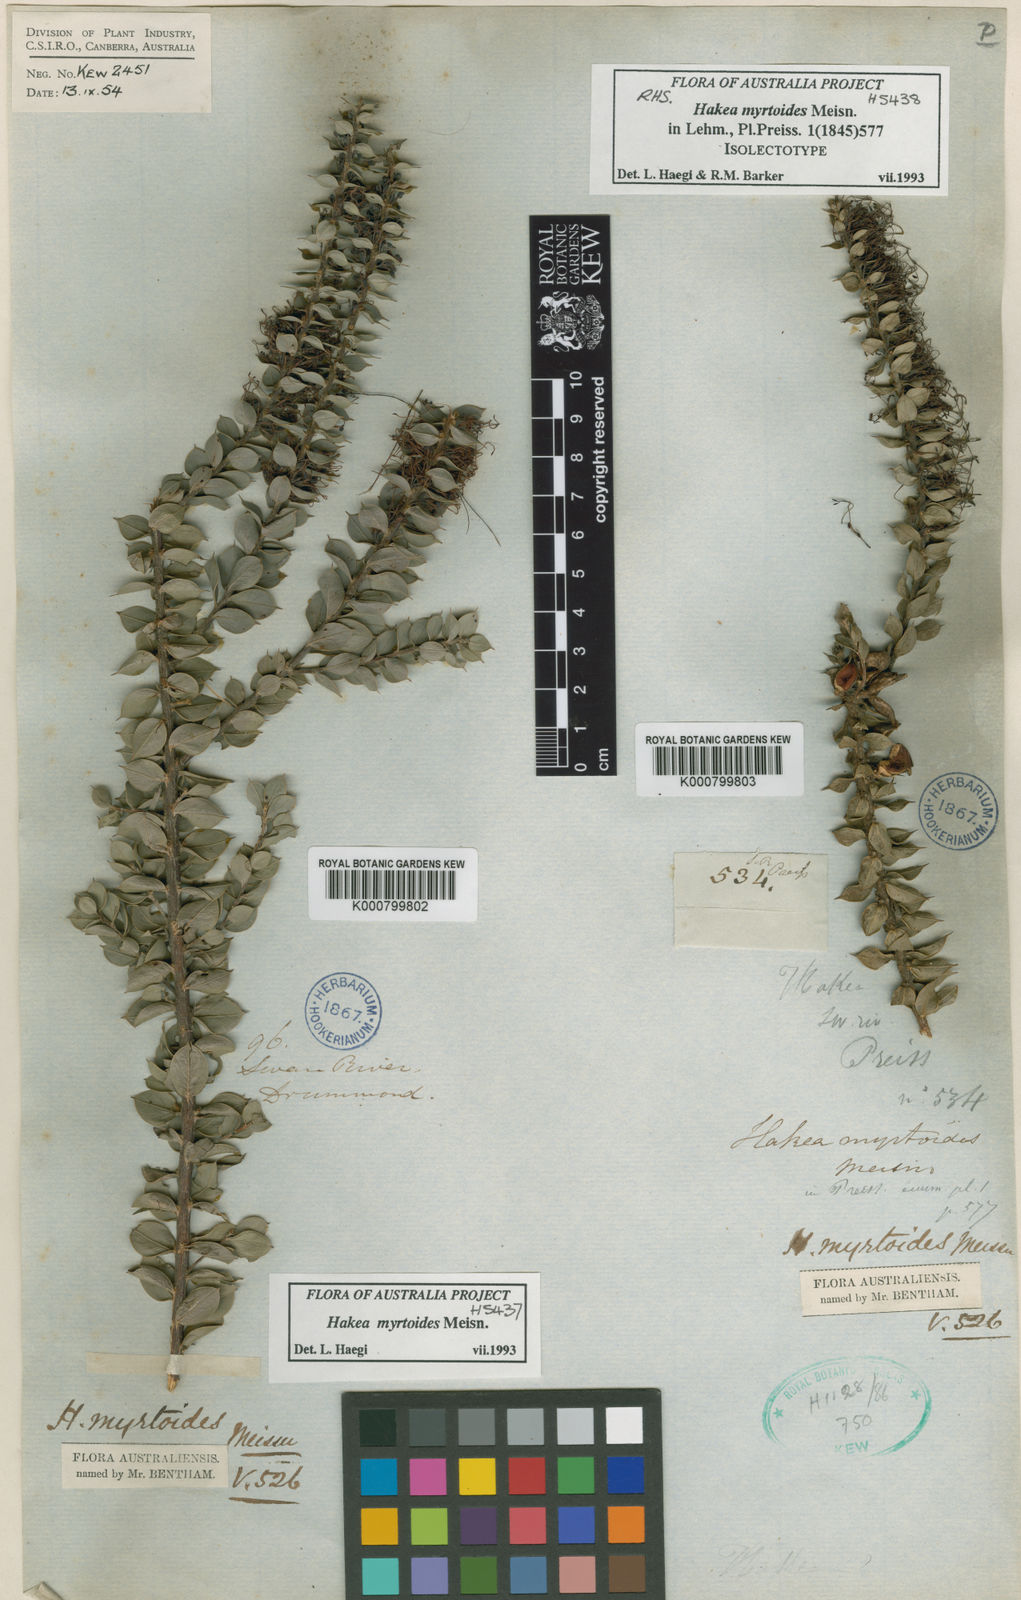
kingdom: Plantae
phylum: Tracheophyta
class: Magnoliopsida
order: Proteales
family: Proteaceae
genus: Hakea
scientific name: Hakea myrtoides
